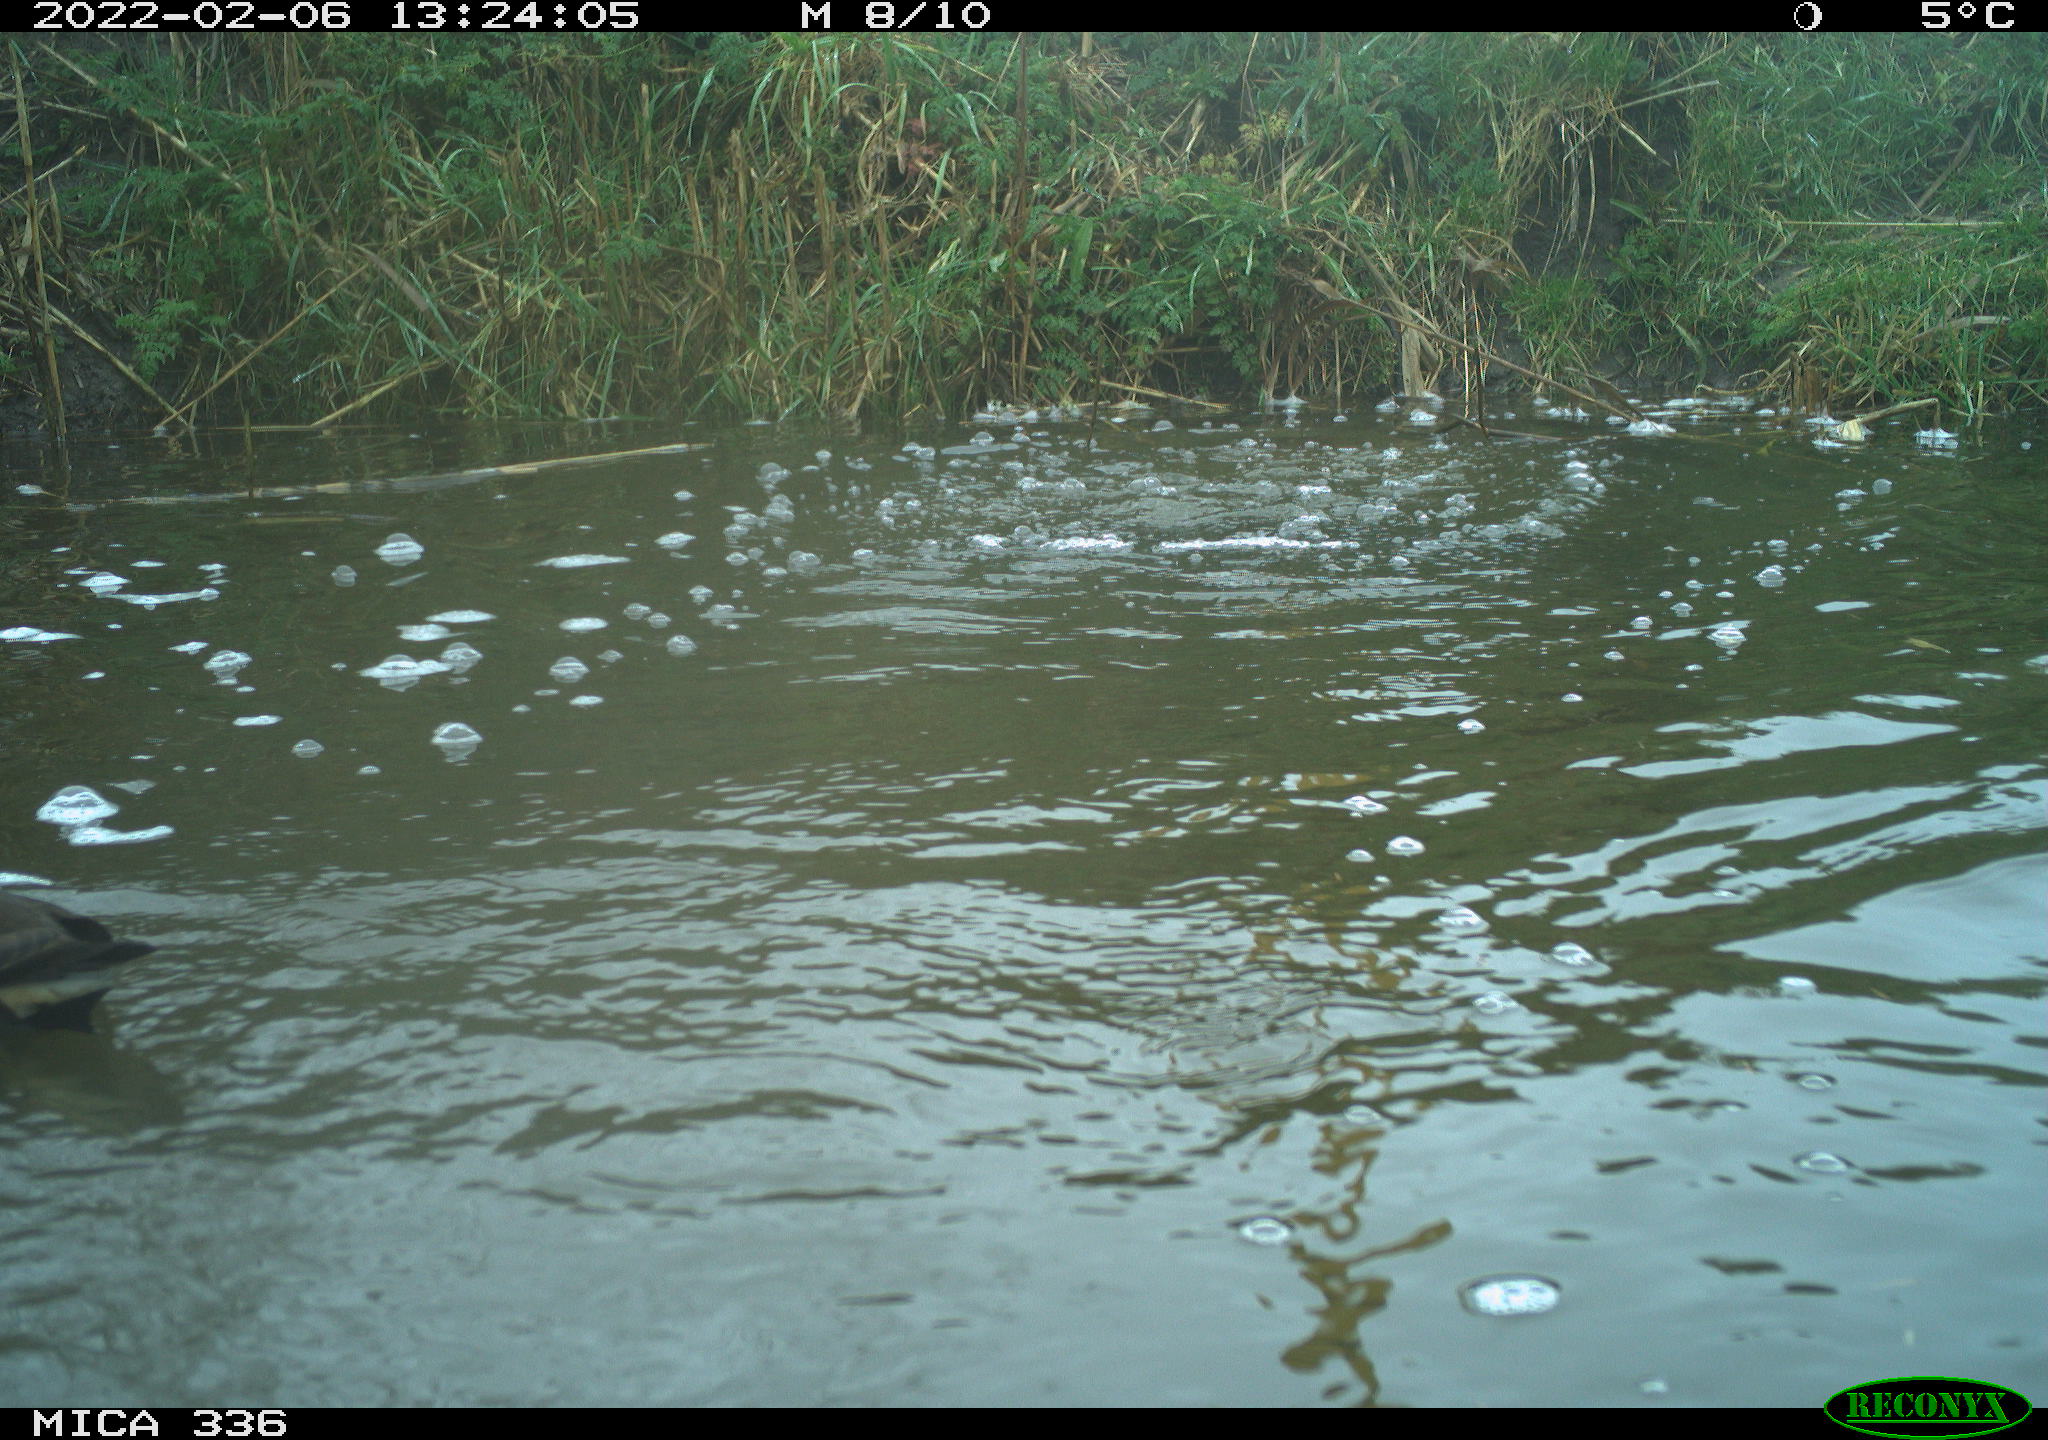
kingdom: Animalia
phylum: Chordata
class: Aves
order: Gruiformes
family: Rallidae
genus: Gallinula
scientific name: Gallinula chloropus
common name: Common moorhen
